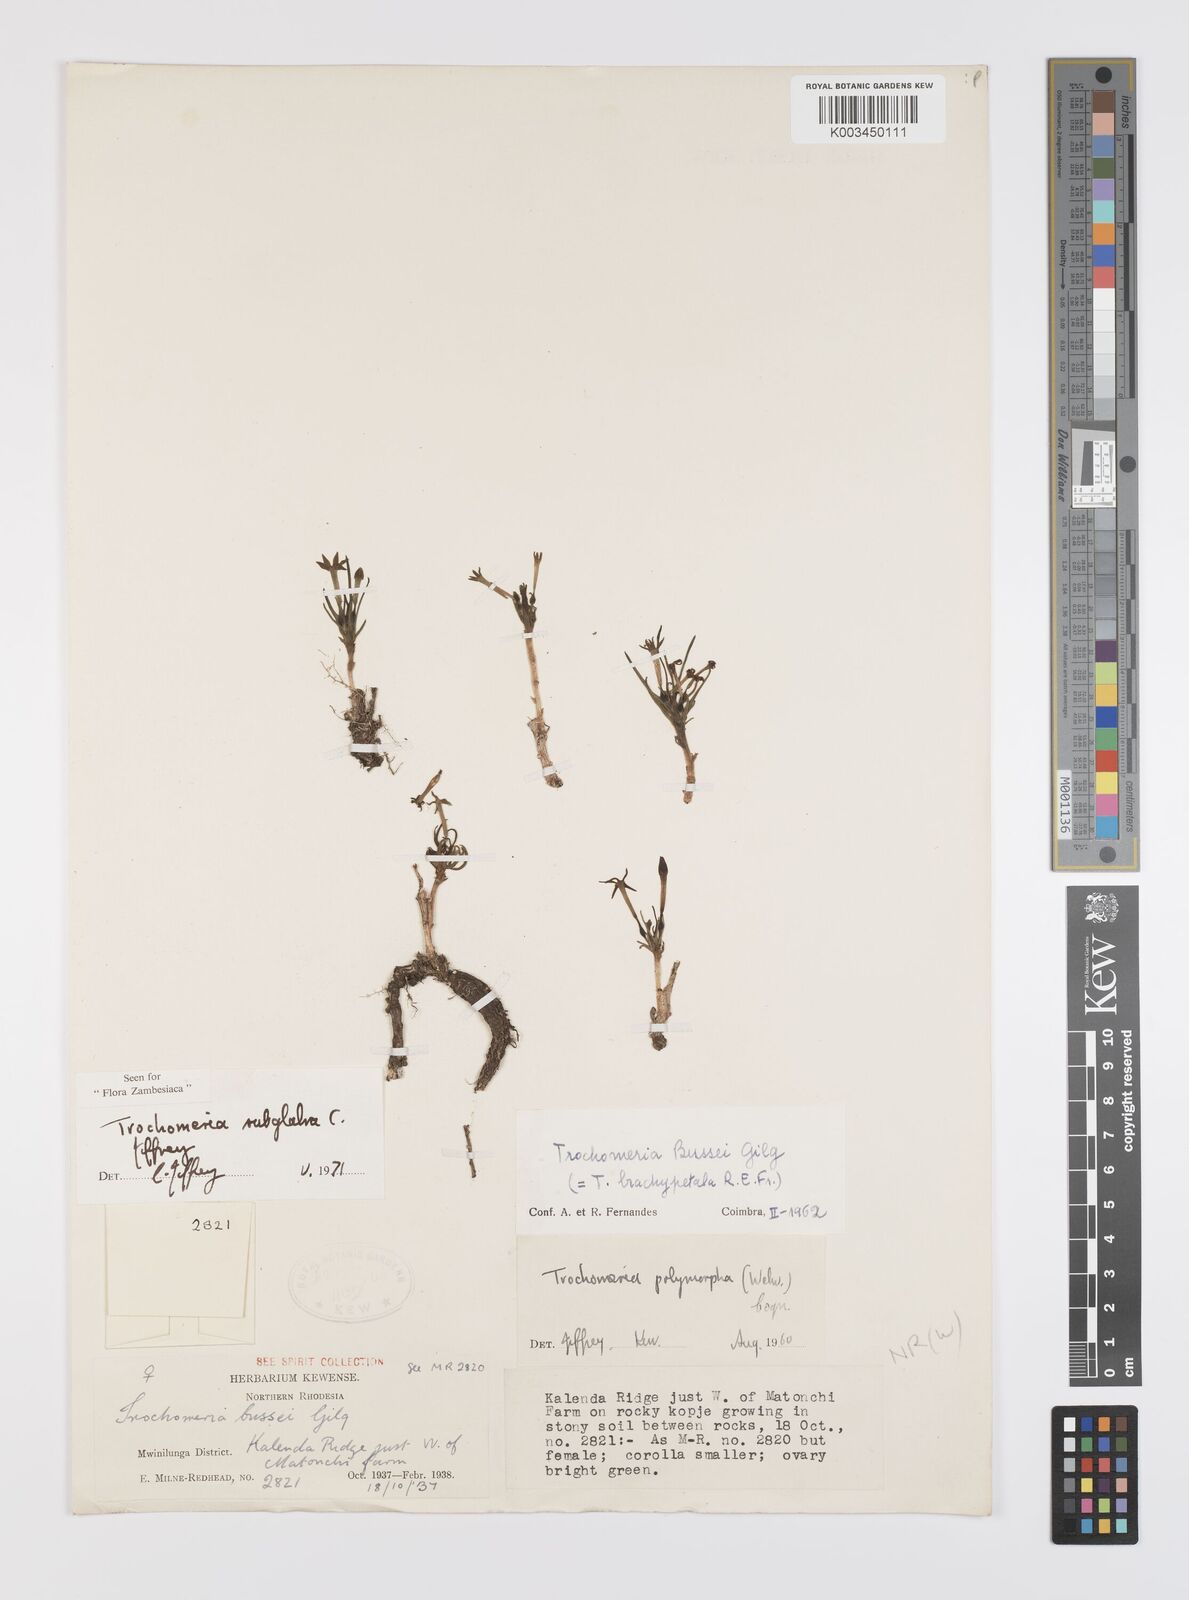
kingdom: Plantae
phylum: Tracheophyta
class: Magnoliopsida
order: Cucurbitales
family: Cucurbitaceae
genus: Trochomeria
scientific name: Trochomeria subglabra
